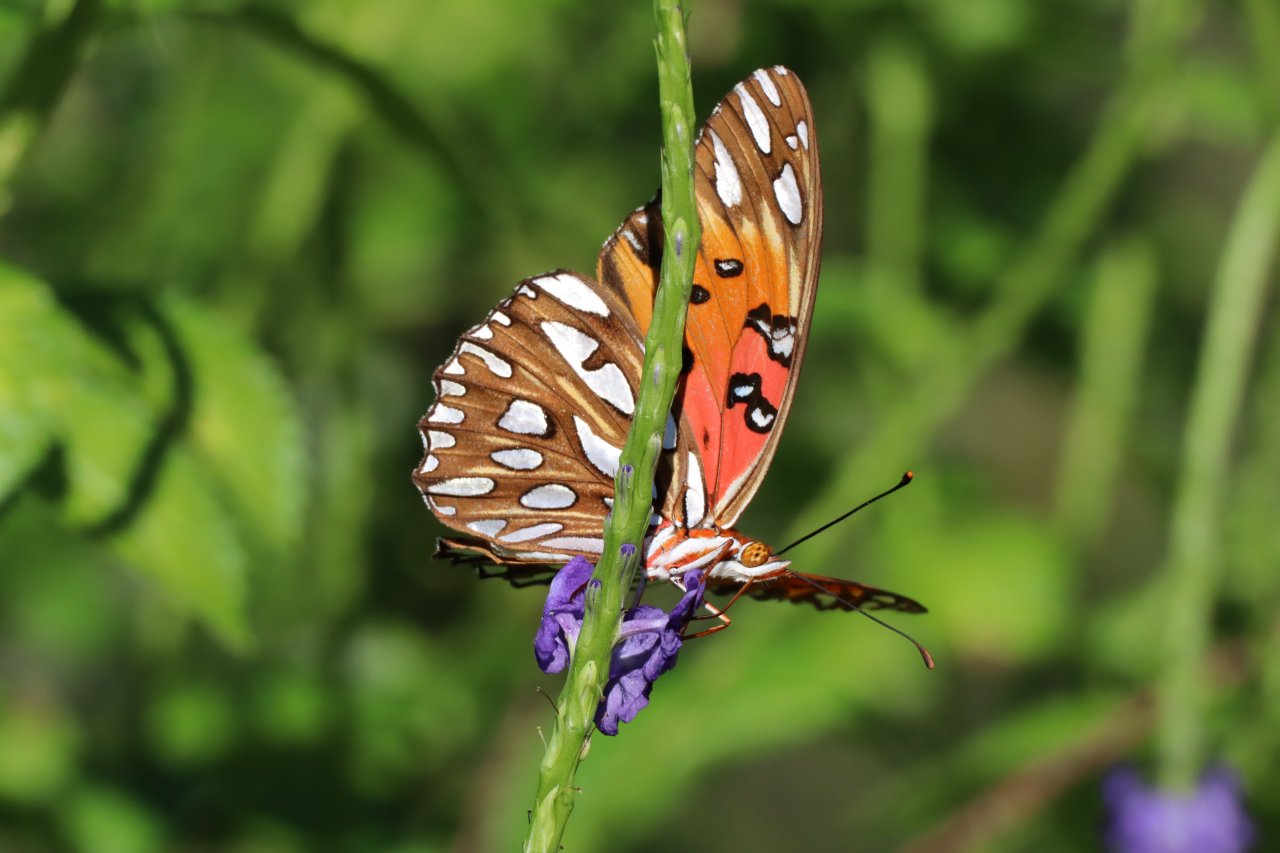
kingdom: Animalia
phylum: Arthropoda
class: Insecta
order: Lepidoptera
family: Nymphalidae
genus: Dione
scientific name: Dione vanillae
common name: Gulf Fritillary
